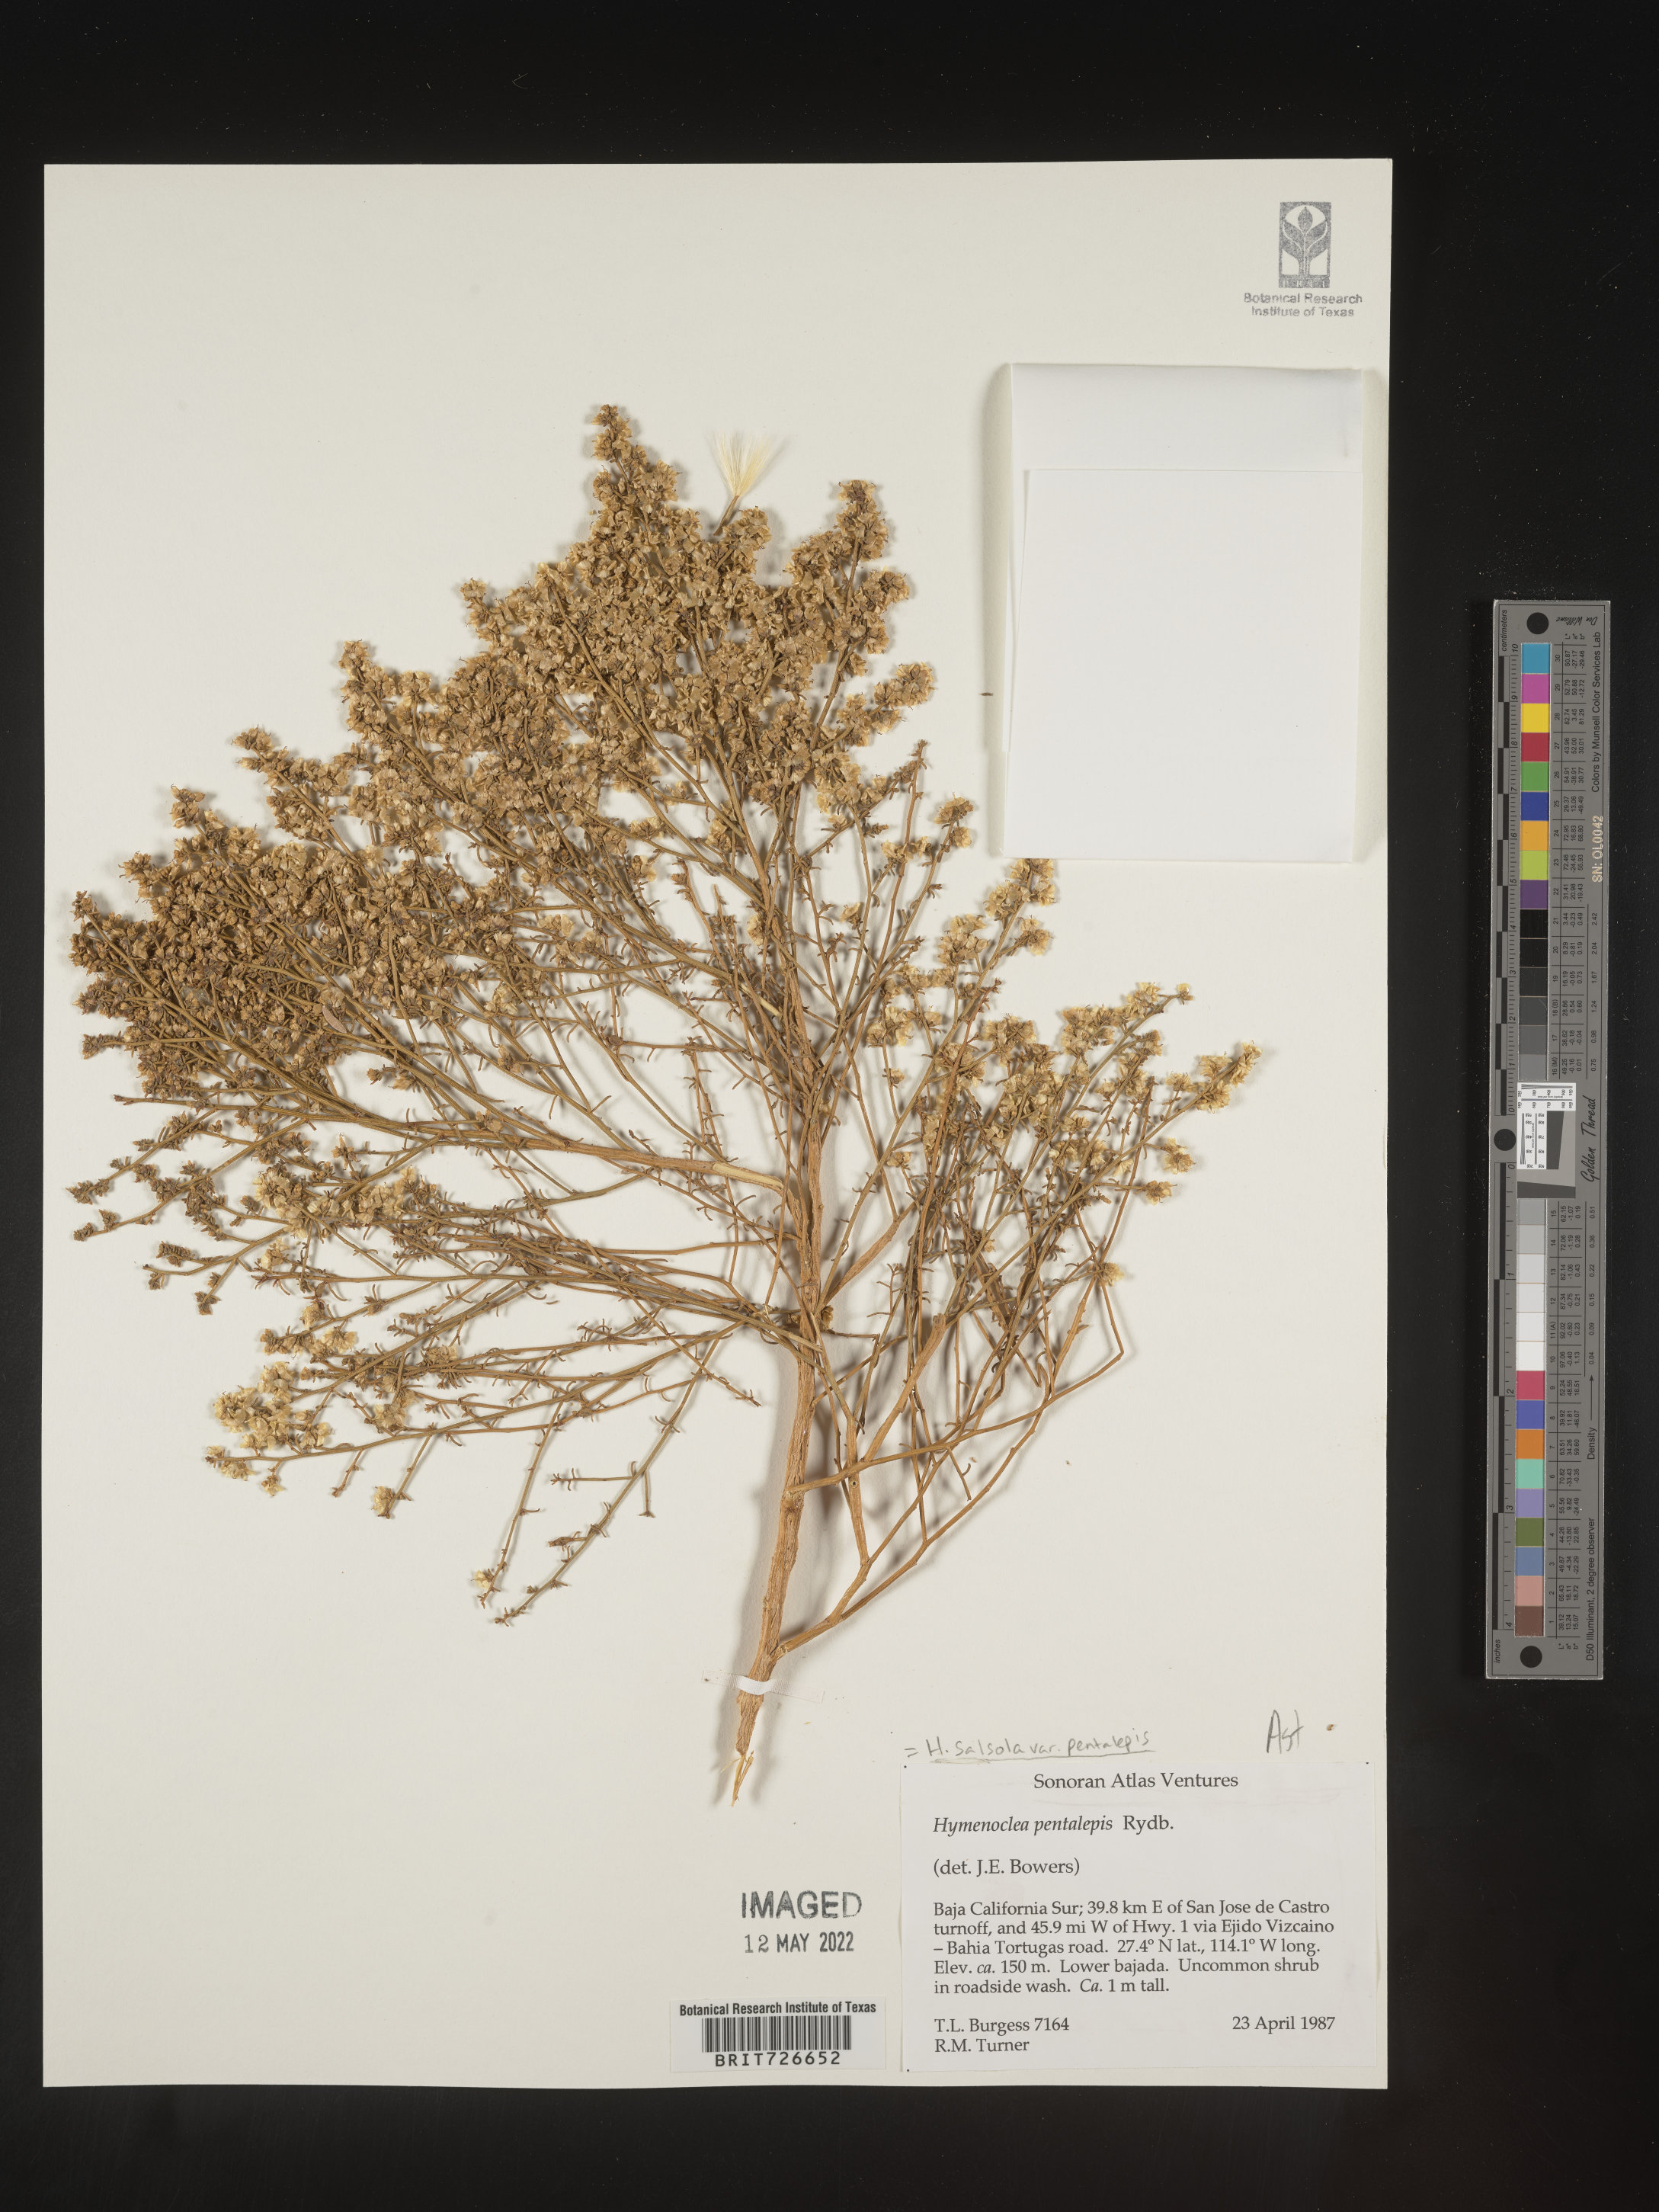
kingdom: Animalia
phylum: Arthropoda
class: Insecta
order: Lepidoptera
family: Sesiidae
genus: Hymenoclea
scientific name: Hymenoclea
